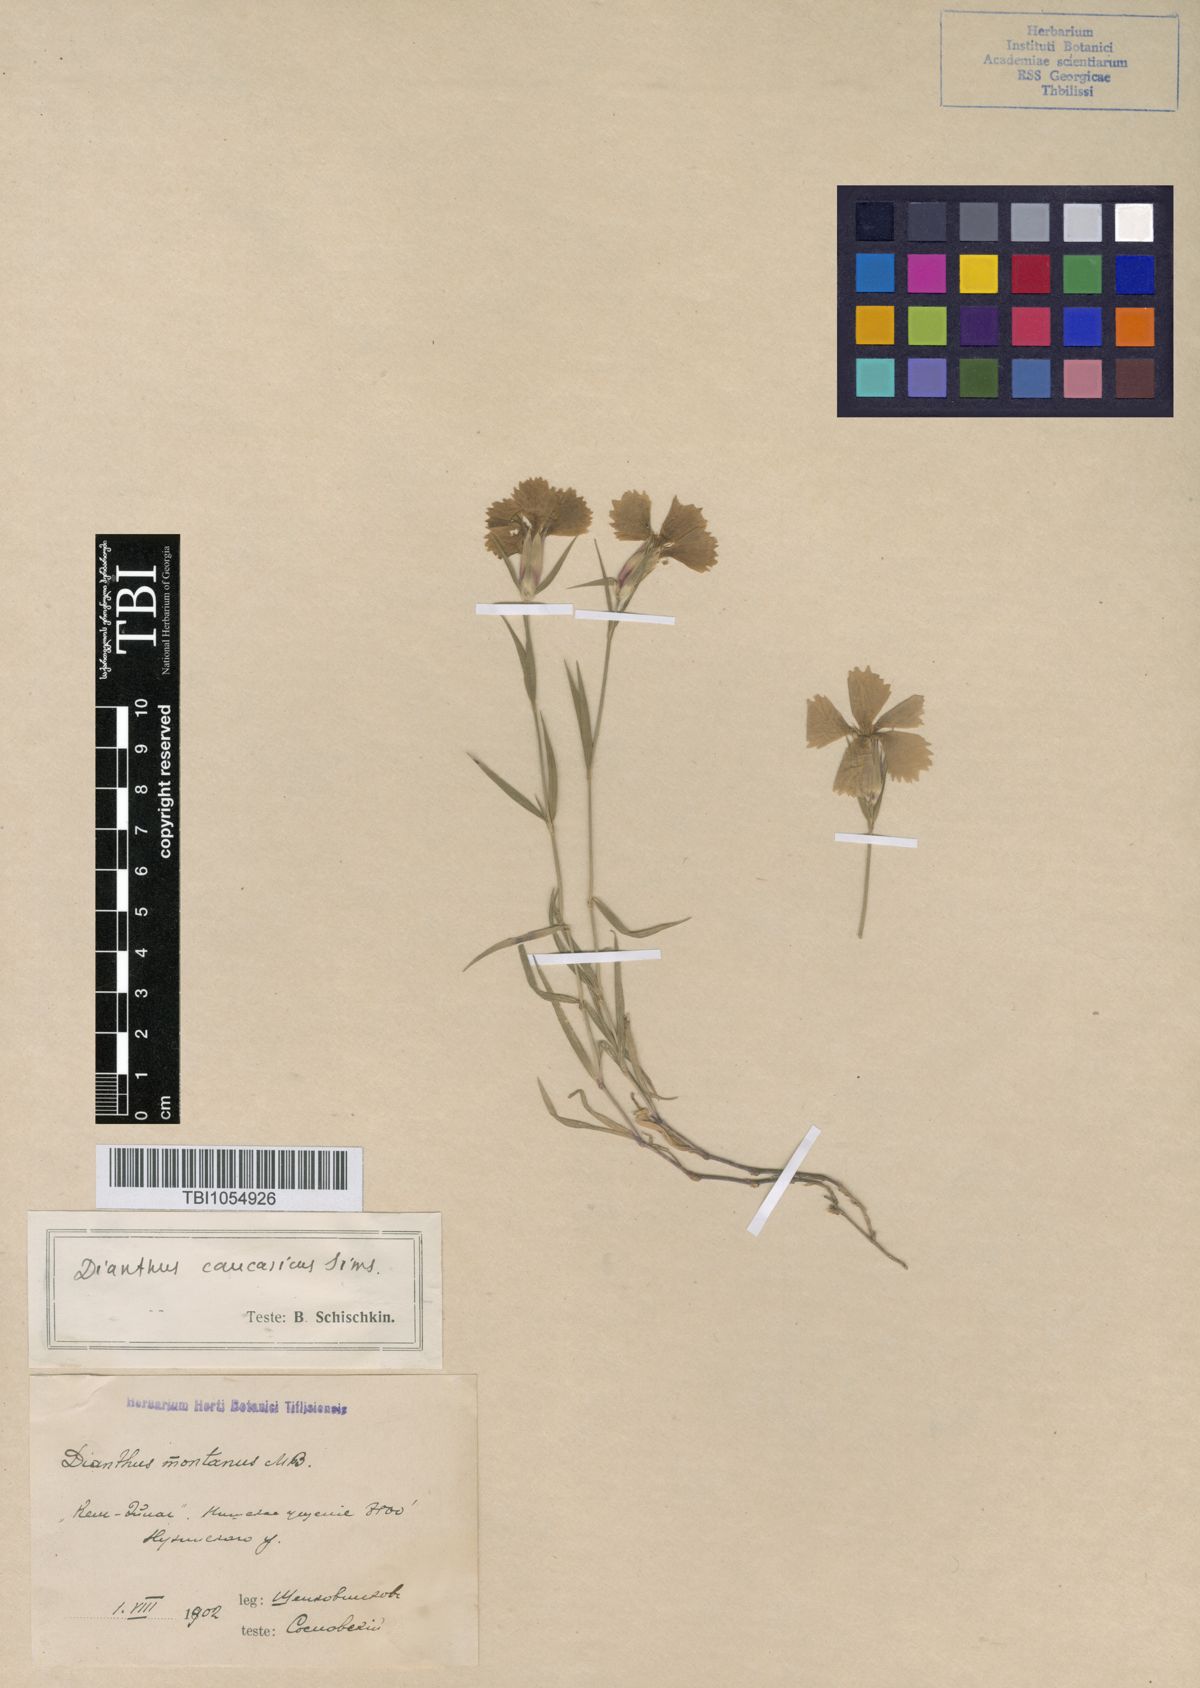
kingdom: Plantae
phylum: Tracheophyta
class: Magnoliopsida
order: Caryophyllales
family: Caryophyllaceae
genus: Dianthus
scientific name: Dianthus caucaseus
